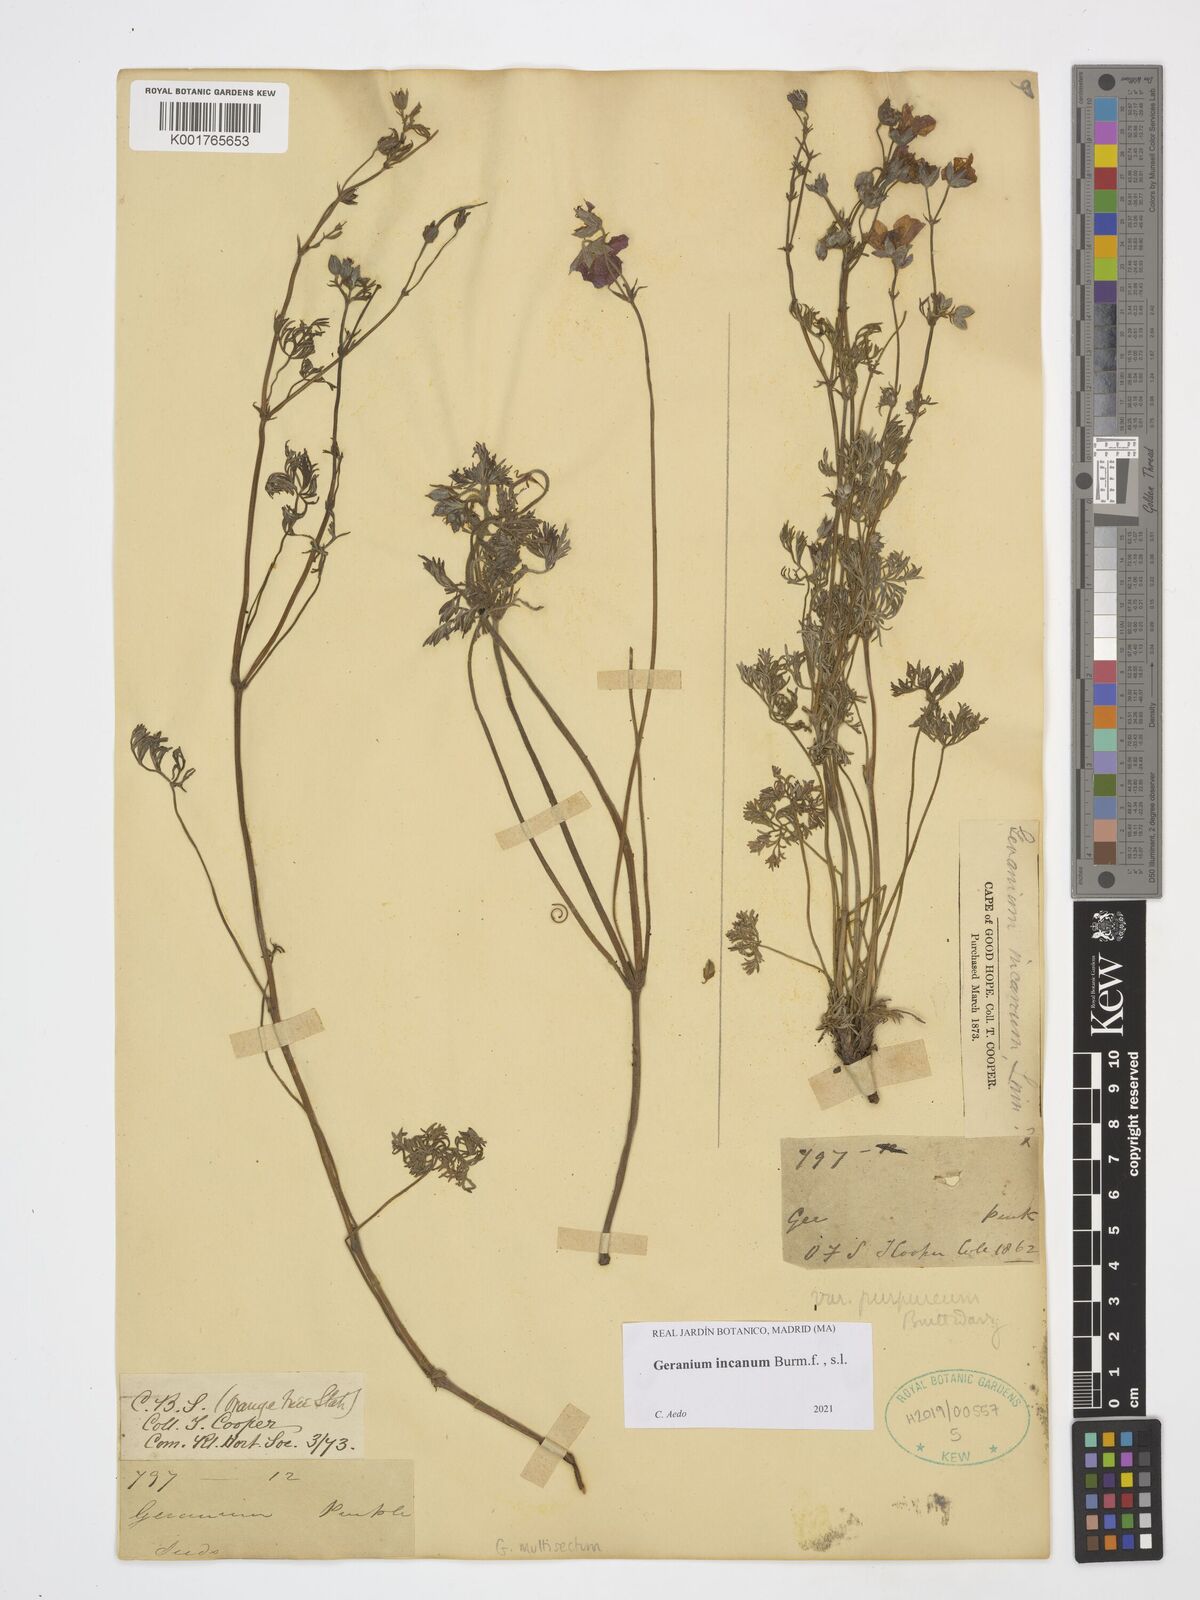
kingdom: Plantae
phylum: Tracheophyta
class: Magnoliopsida
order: Geraniales
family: Geraniaceae
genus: Geranium
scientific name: Geranium incanum
